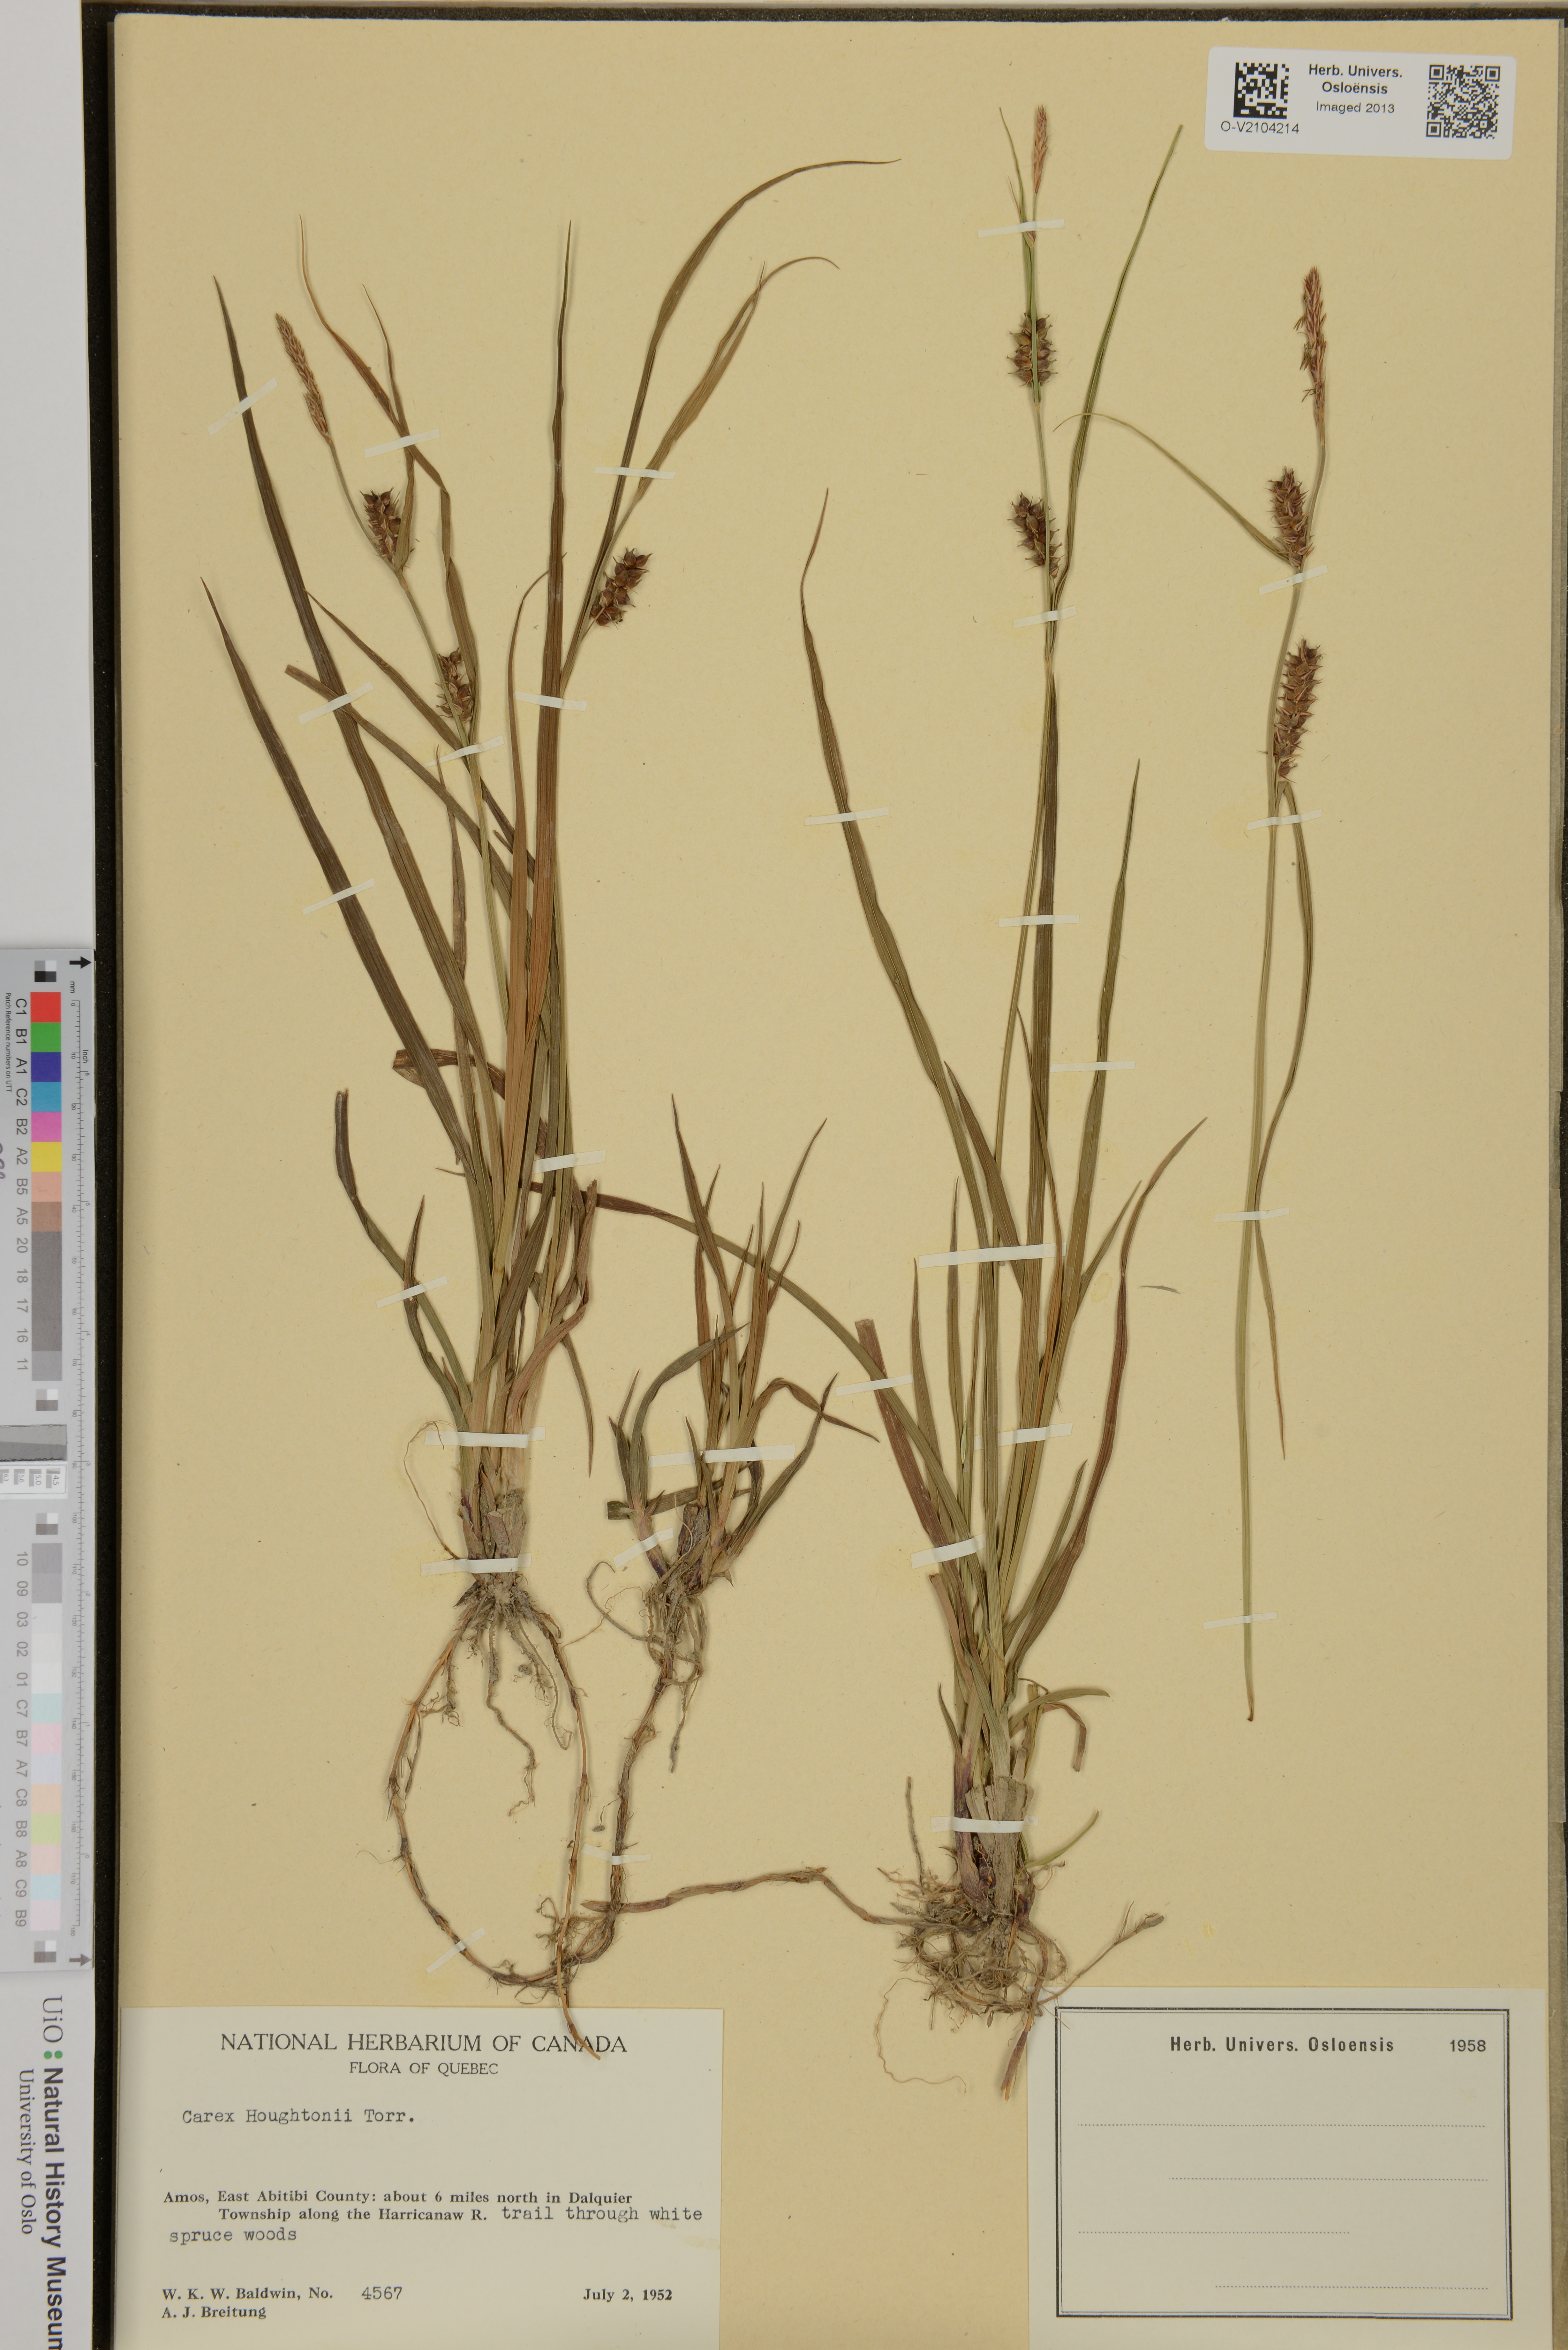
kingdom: Plantae
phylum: Tracheophyta
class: Liliopsida
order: Poales
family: Cyperaceae
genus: Carex
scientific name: Carex houghtoniana
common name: Houghton's sedge
